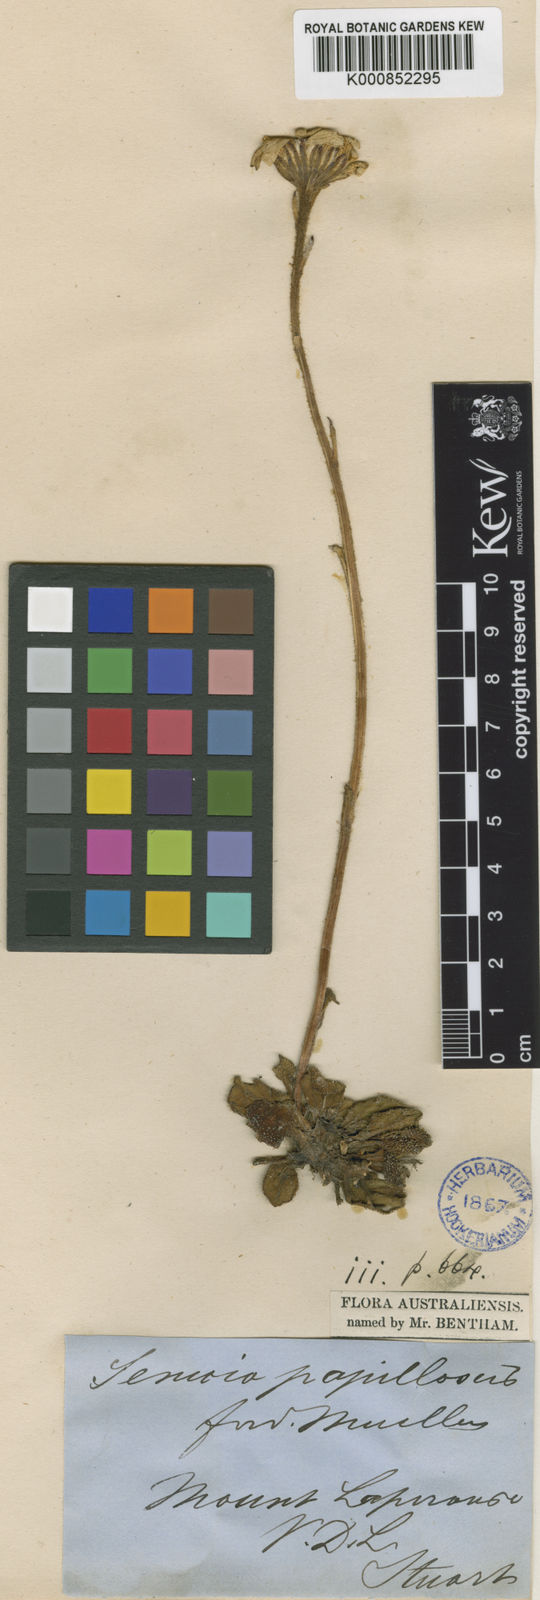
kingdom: Plantae
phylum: Tracheophyta
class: Magnoliopsida
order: Asterales
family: Asteraceae
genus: Scapisenecio
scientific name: Scapisenecio papillosus
